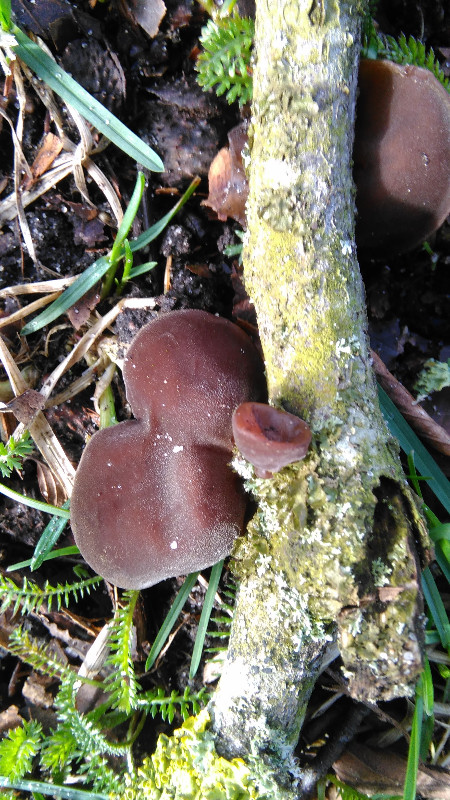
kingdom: Fungi
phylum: Basidiomycota
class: Agaricomycetes
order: Auriculariales
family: Auriculariaceae
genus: Auricularia
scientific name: Auricularia auricula-judae
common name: almindelig judasøre
